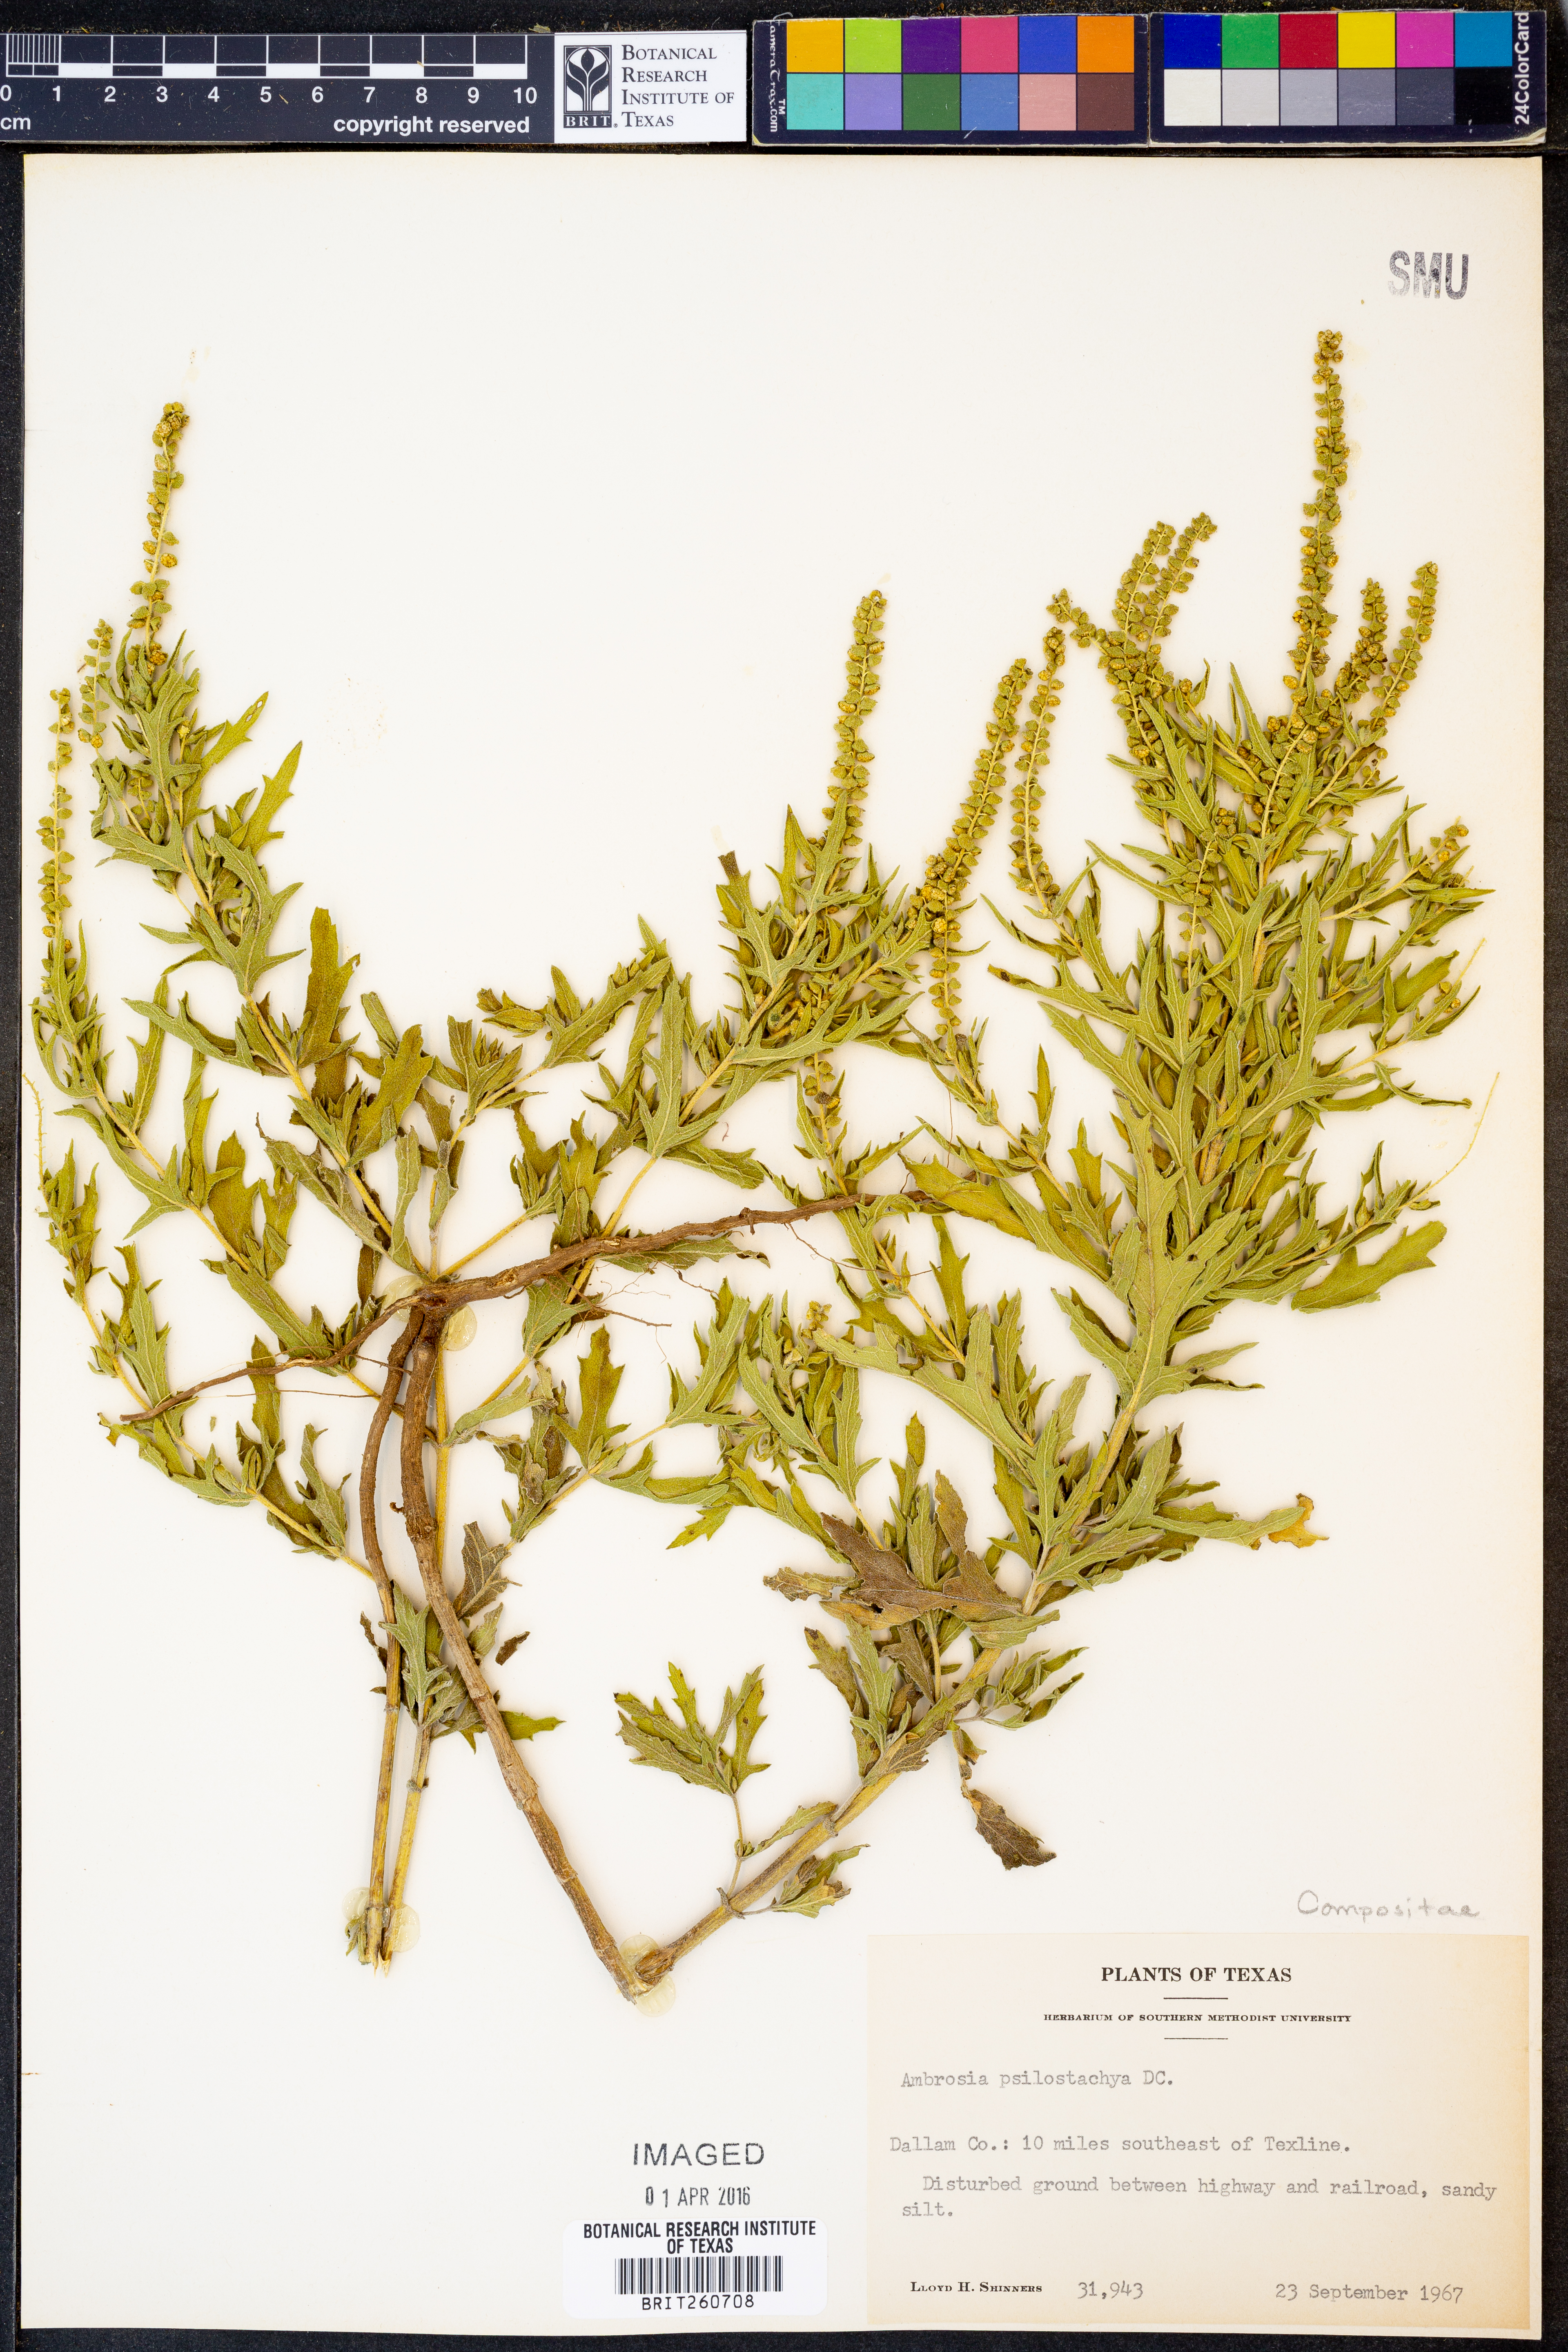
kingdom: Plantae
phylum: Tracheophyta
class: Magnoliopsida
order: Asterales
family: Asteraceae
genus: Ambrosia
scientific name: Ambrosia psilostachya
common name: Perennial ragweed
